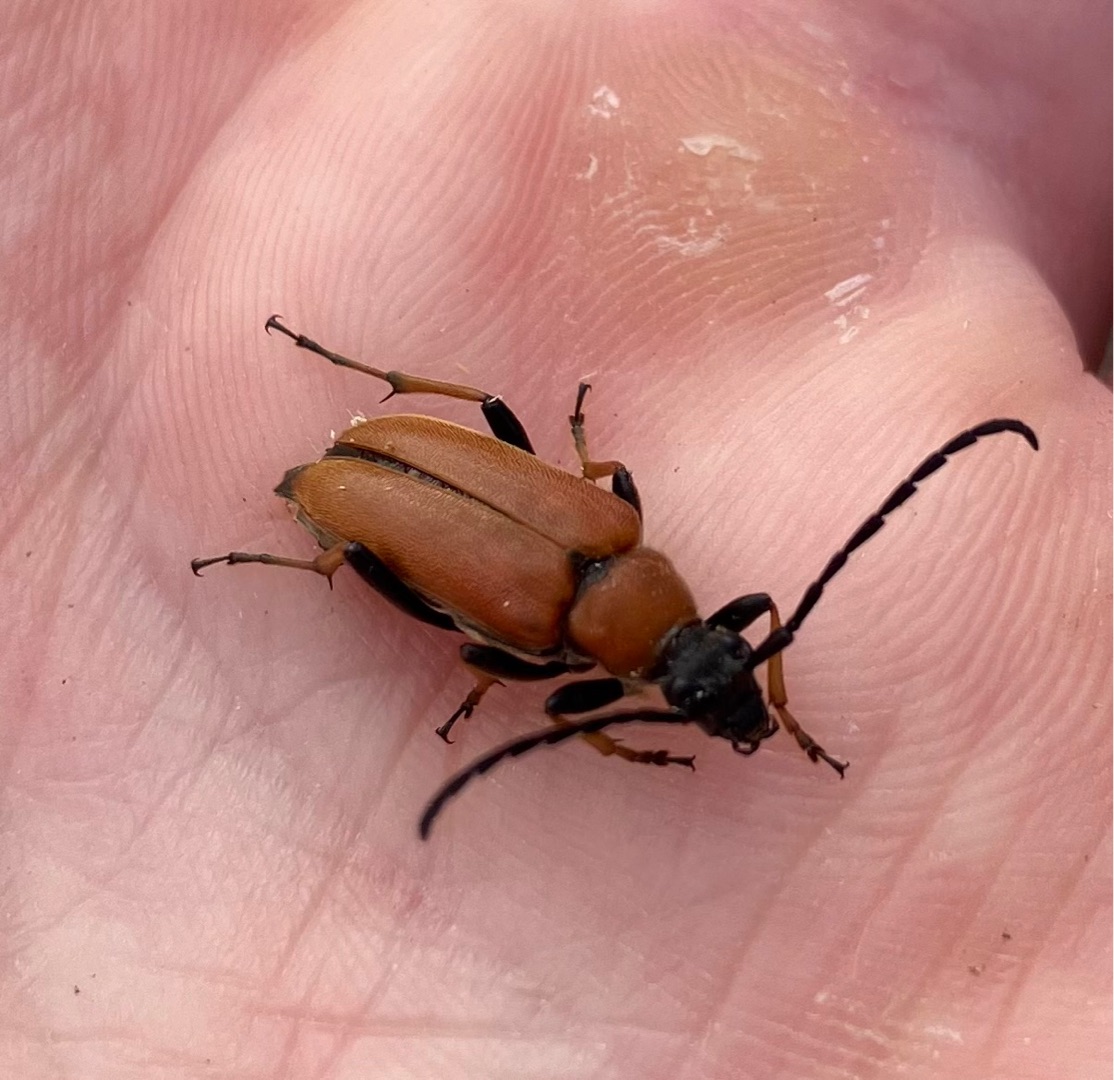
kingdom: Animalia
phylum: Arthropoda
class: Insecta
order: Coleoptera
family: Cerambycidae
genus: Stictoleptura
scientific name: Stictoleptura rubra
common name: Rød blomsterbuk
